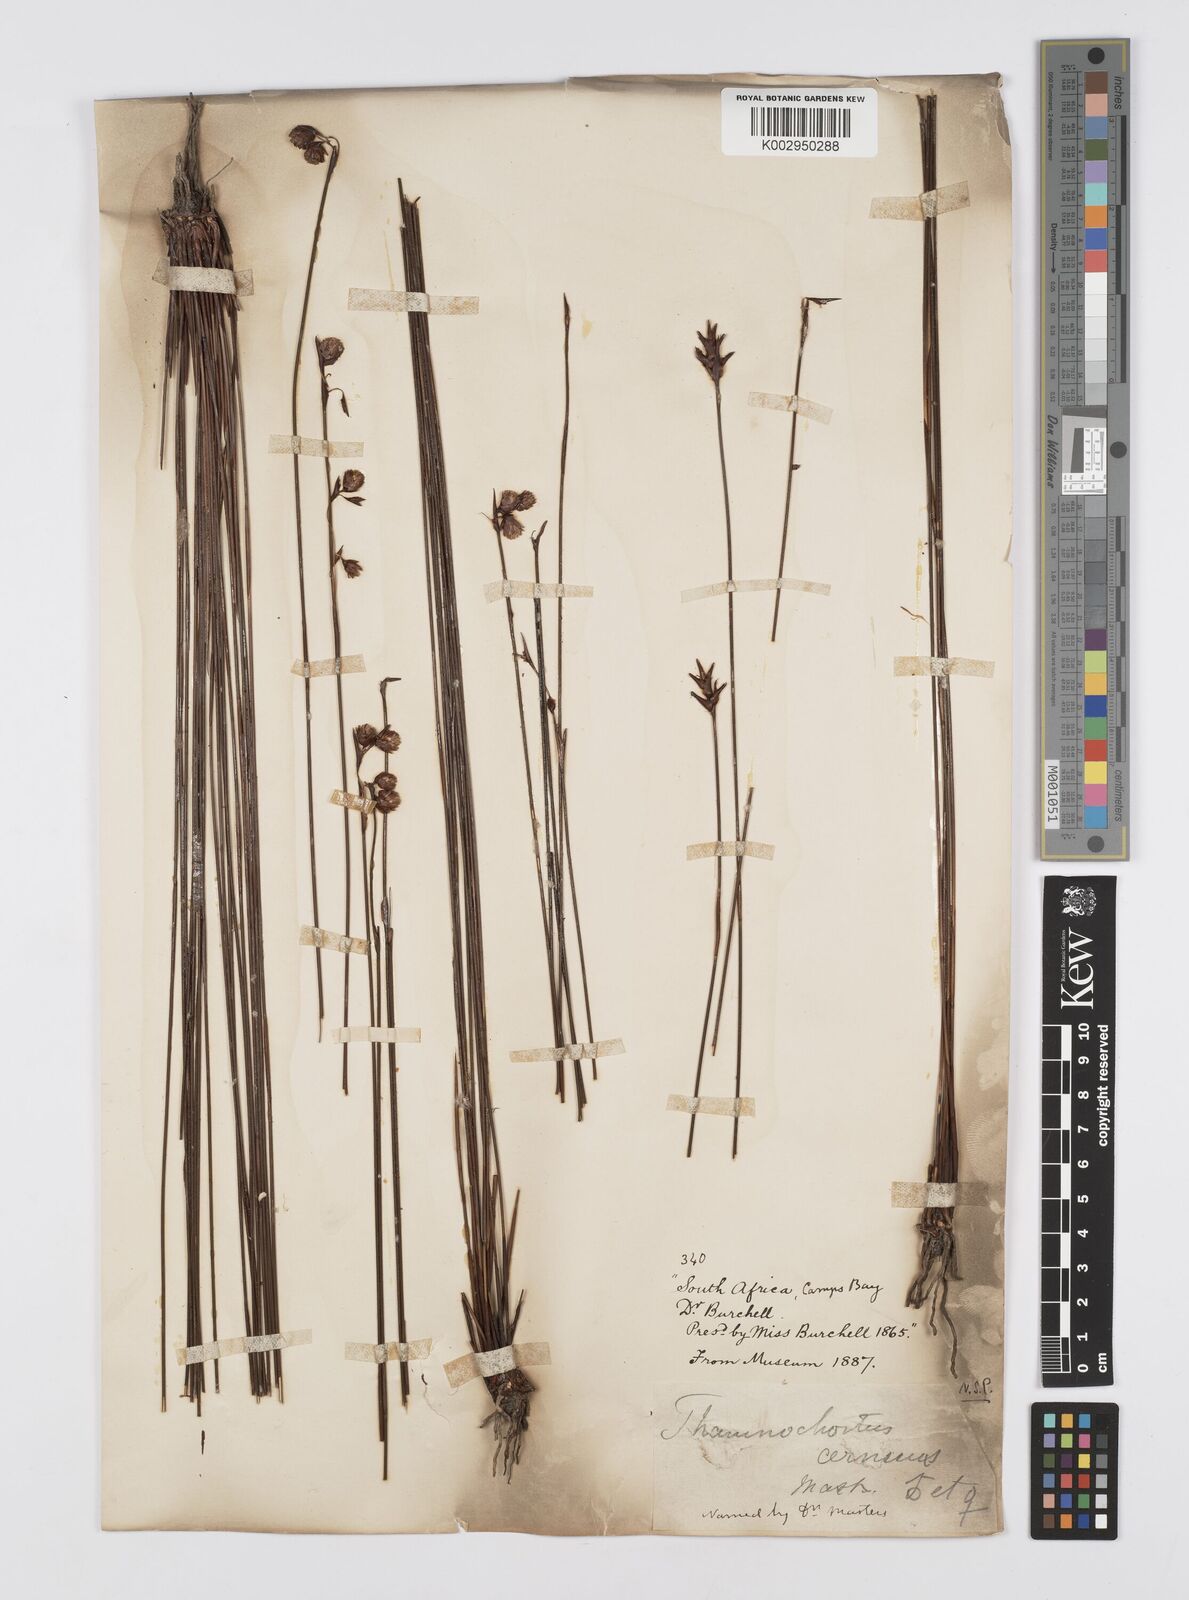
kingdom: Plantae
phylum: Tracheophyta
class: Liliopsida
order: Poales
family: Restionaceae
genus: Staberoha
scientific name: Staberoha cernua
